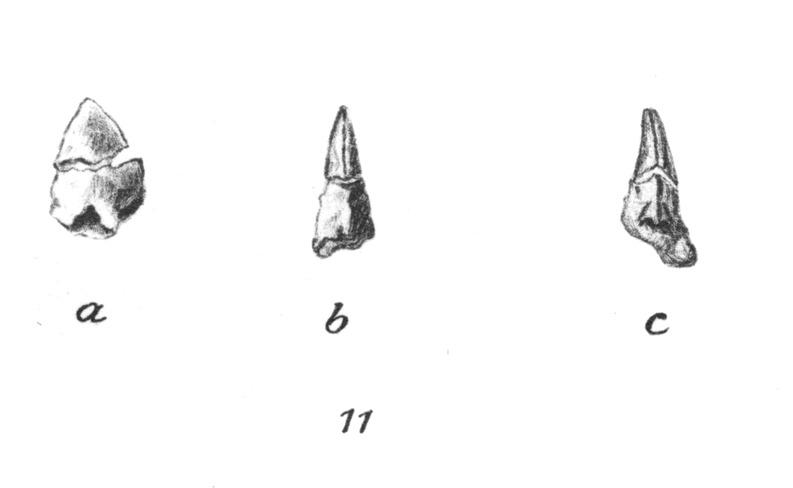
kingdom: Animalia
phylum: Chordata
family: Saurodontidae
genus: Saurocephalus
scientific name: Saurocephalus
